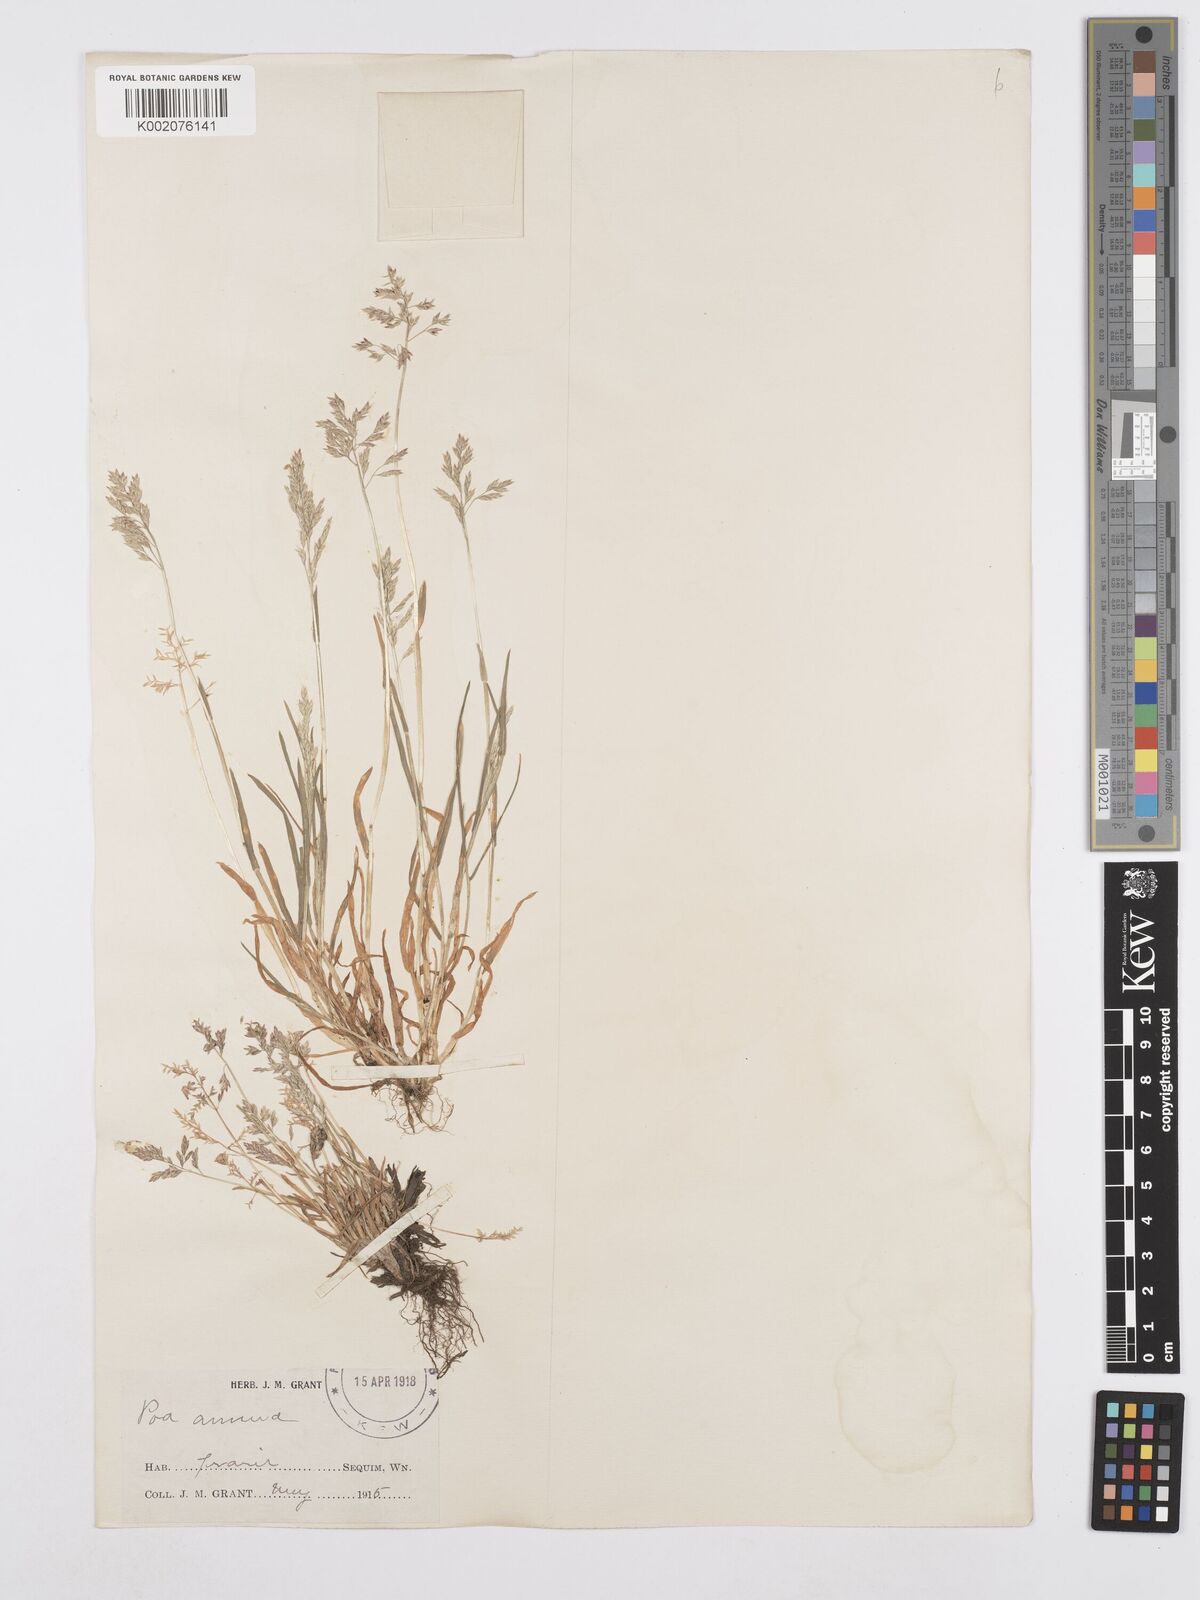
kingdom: Plantae
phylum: Tracheophyta
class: Liliopsida
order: Poales
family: Poaceae
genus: Poa
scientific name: Poa annua
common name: Annual bluegrass
